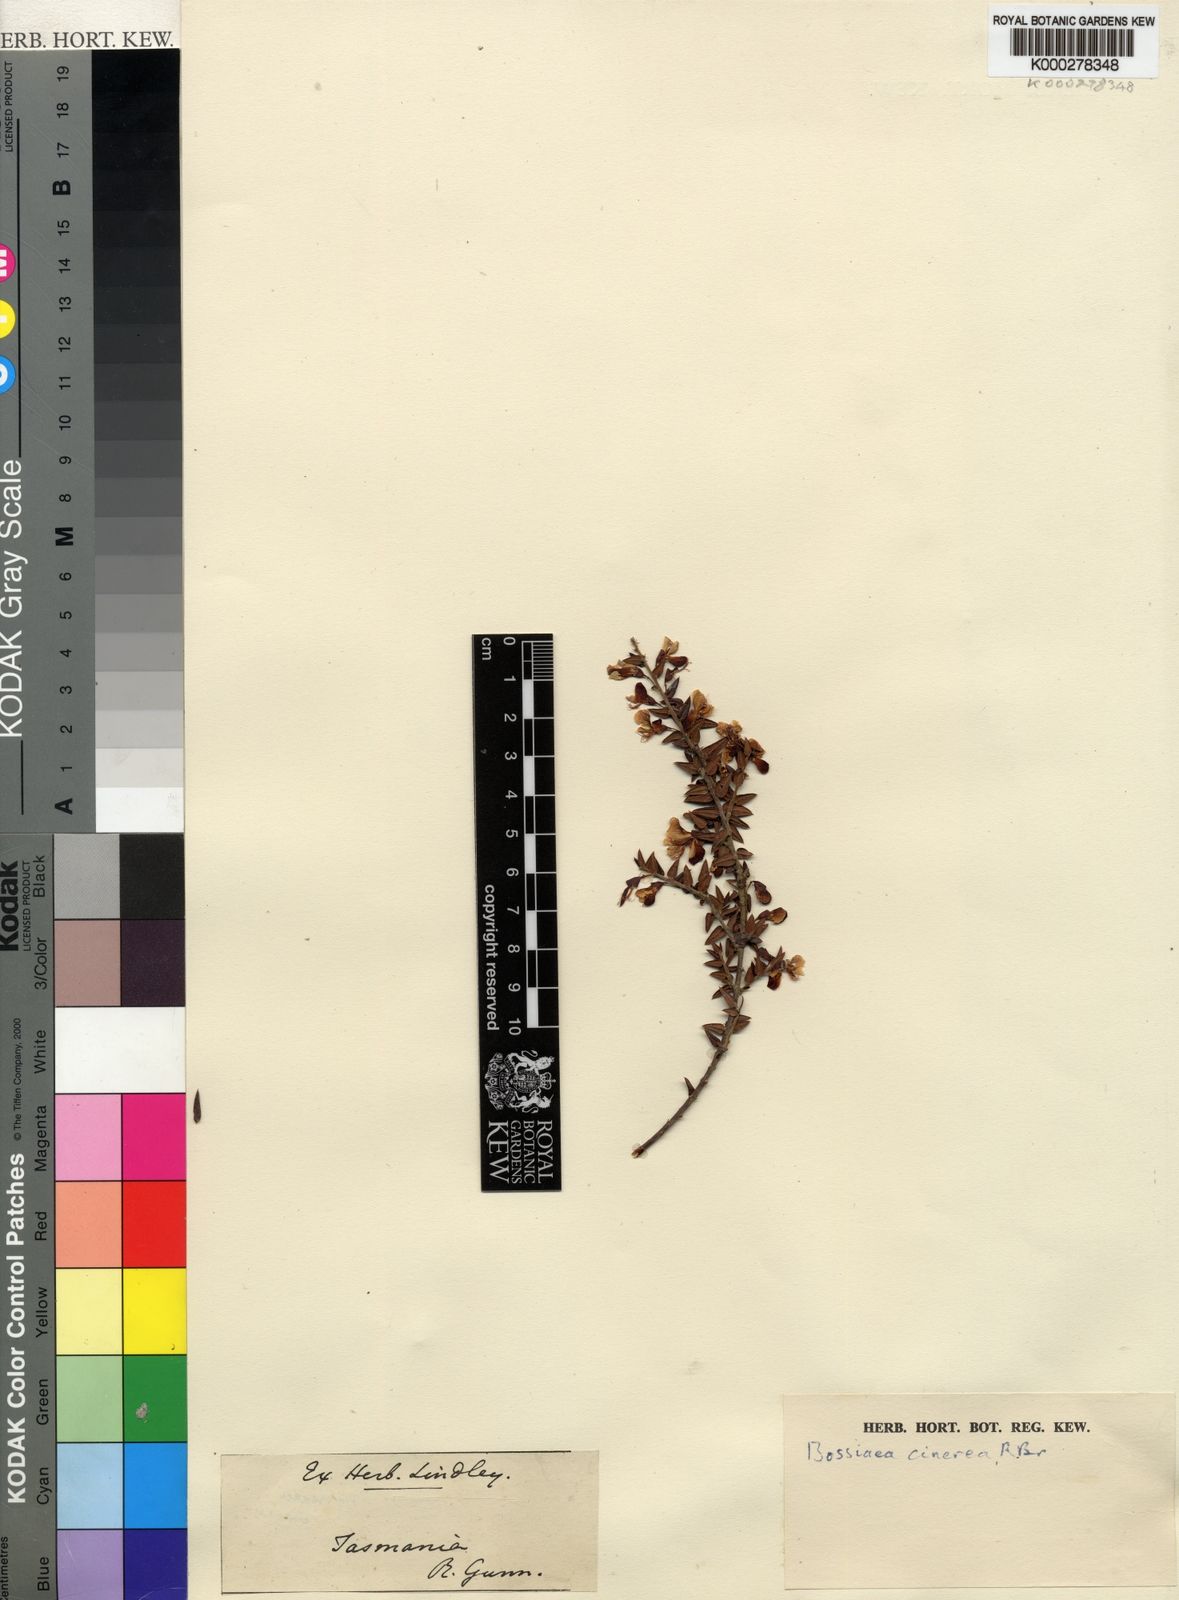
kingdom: Plantae
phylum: Tracheophyta
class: Magnoliopsida
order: Fabales
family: Fabaceae
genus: Bossiaea
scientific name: Bossiaea cinerea
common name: Showy bossiaea
